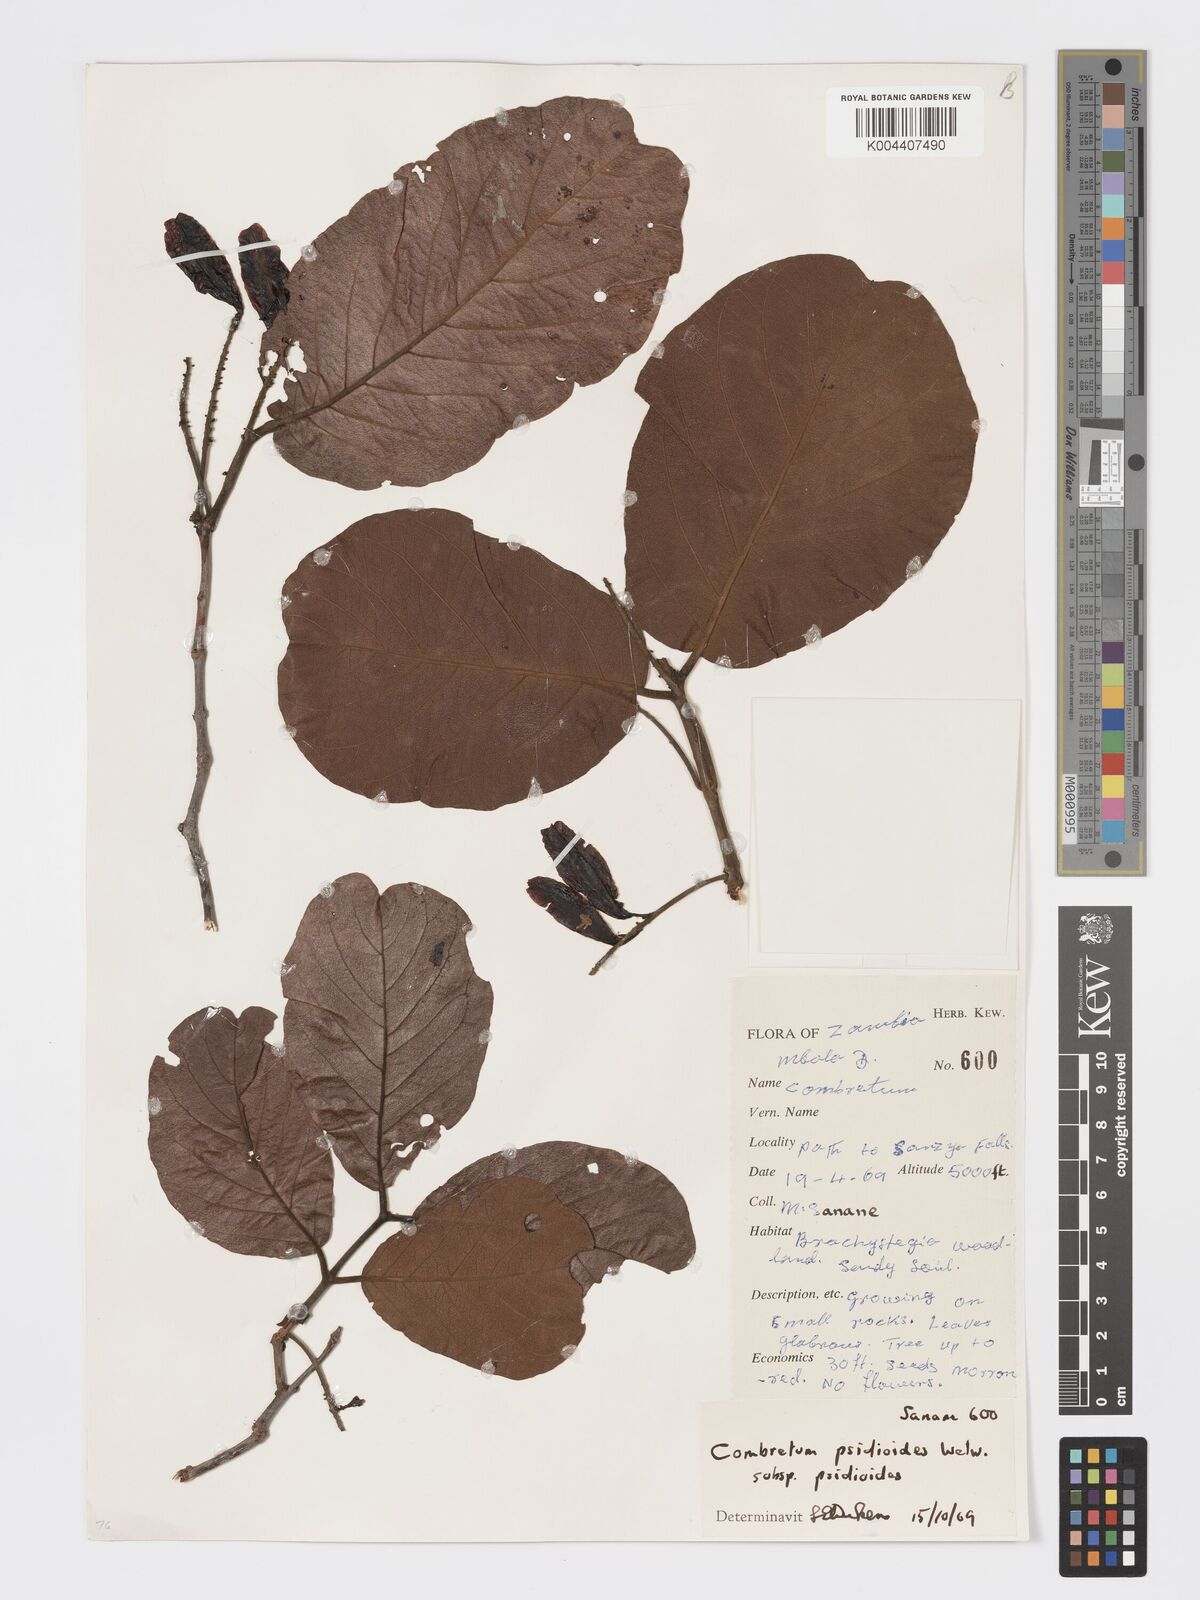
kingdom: Plantae
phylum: Tracheophyta
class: Magnoliopsida
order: Myrtales
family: Combretaceae
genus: Combretum
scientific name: Combretum psidioides
